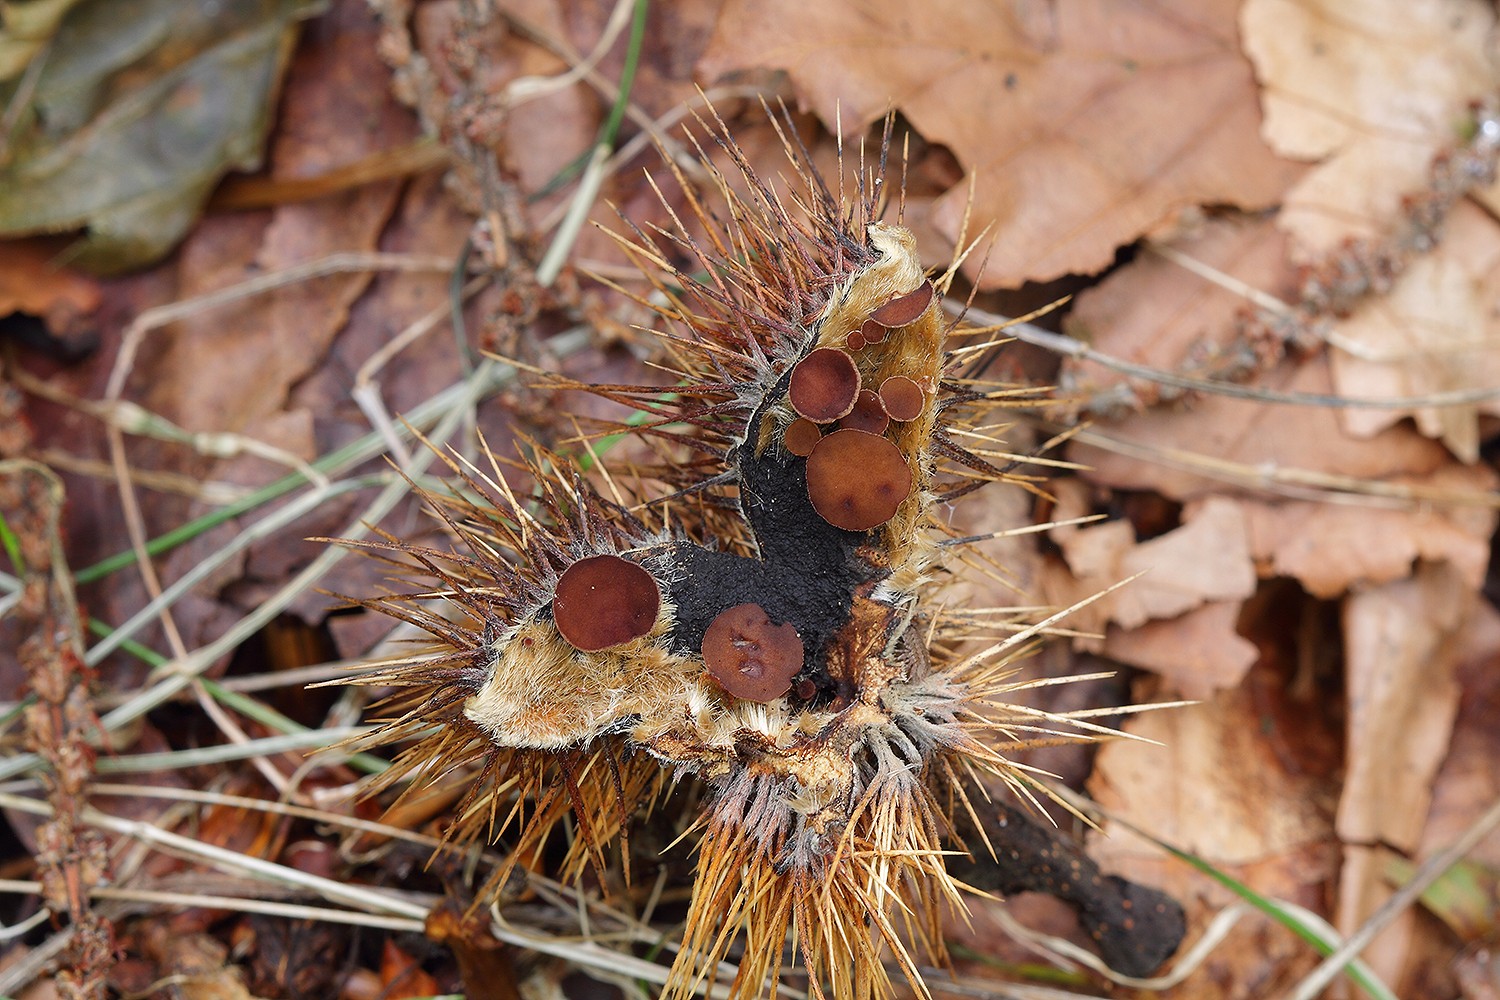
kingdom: Fungi
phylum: Ascomycota
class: Leotiomycetes
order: Helotiales
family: Rutstroemiaceae
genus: Lanzia
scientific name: Lanzia echinophila
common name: kastanie-brunskive
